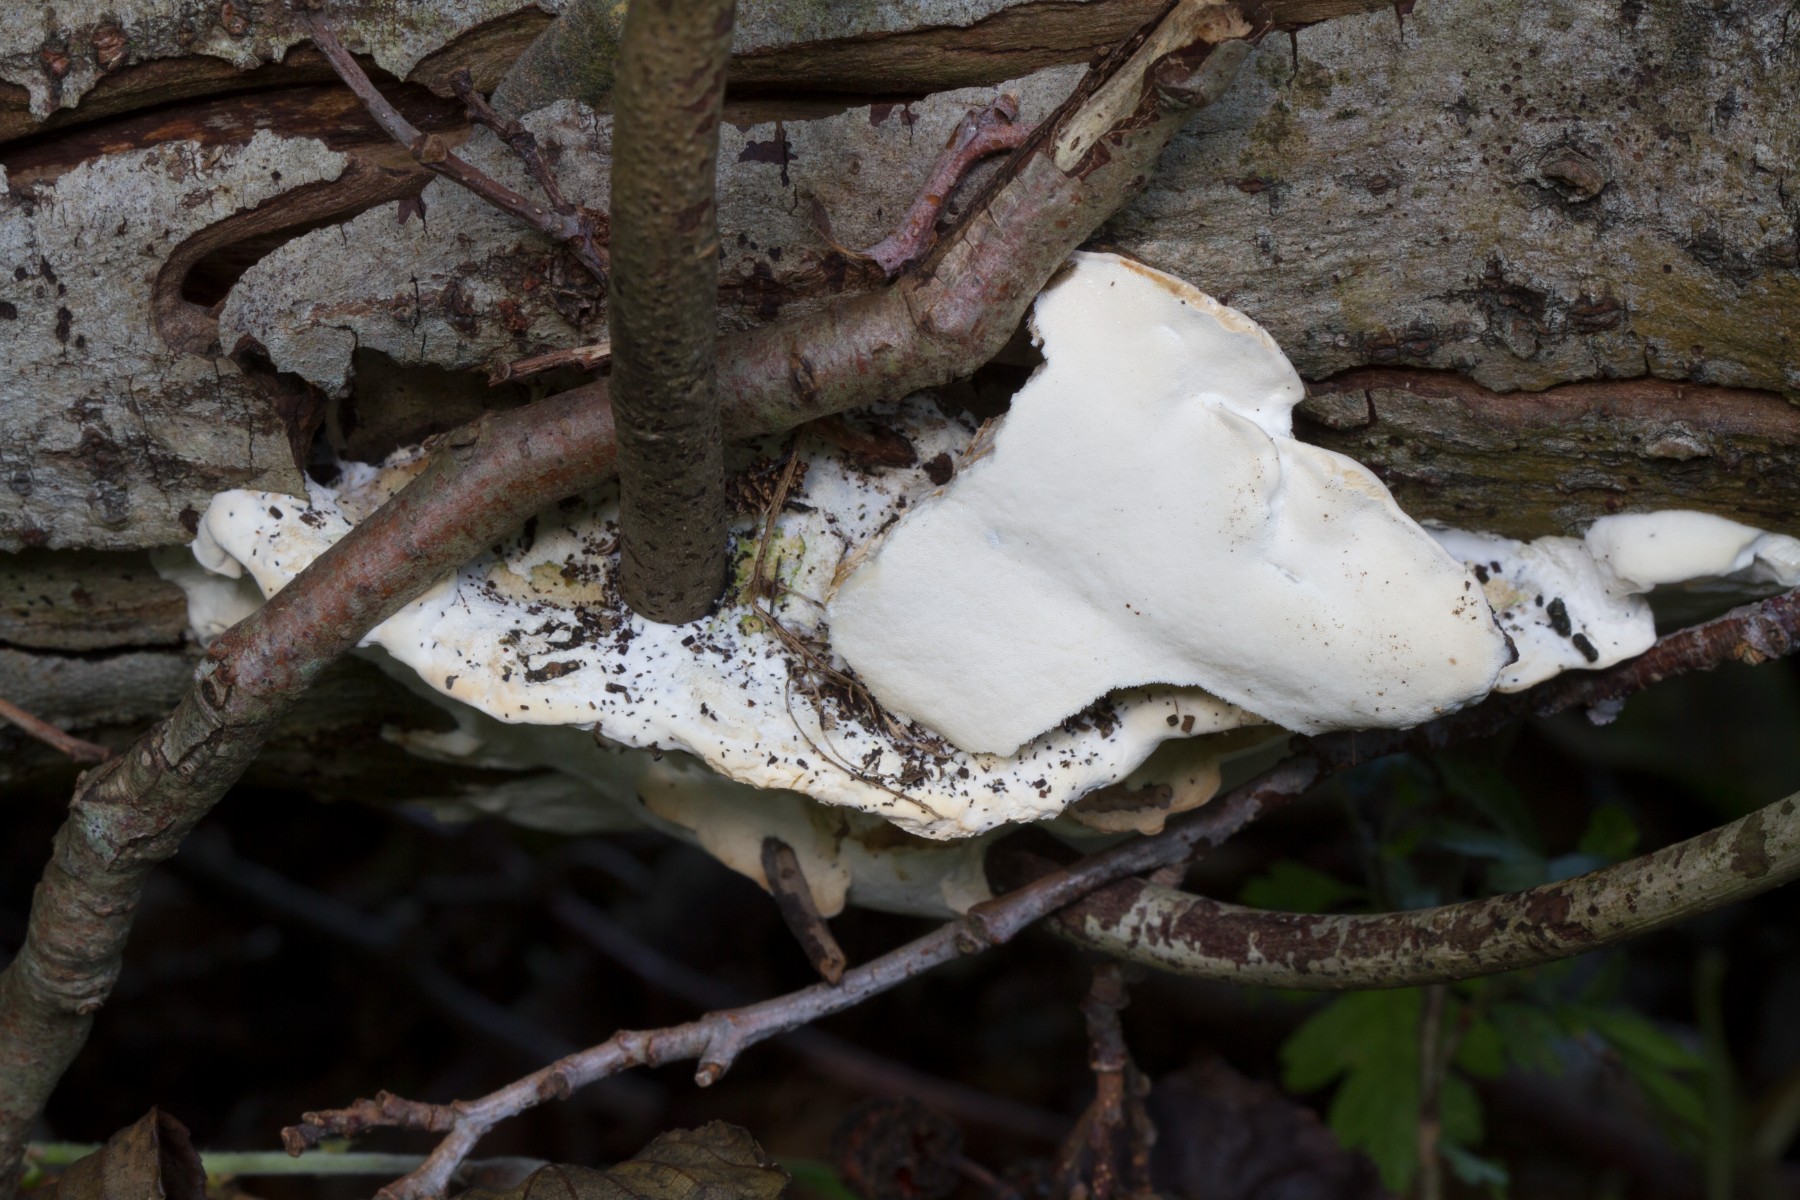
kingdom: Fungi
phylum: Basidiomycota
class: Agaricomycetes
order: Hymenochaetales
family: Oxyporaceae
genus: Oxyporus
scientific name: Oxyporus populinus
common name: sammenvokset trylleporesvamp
